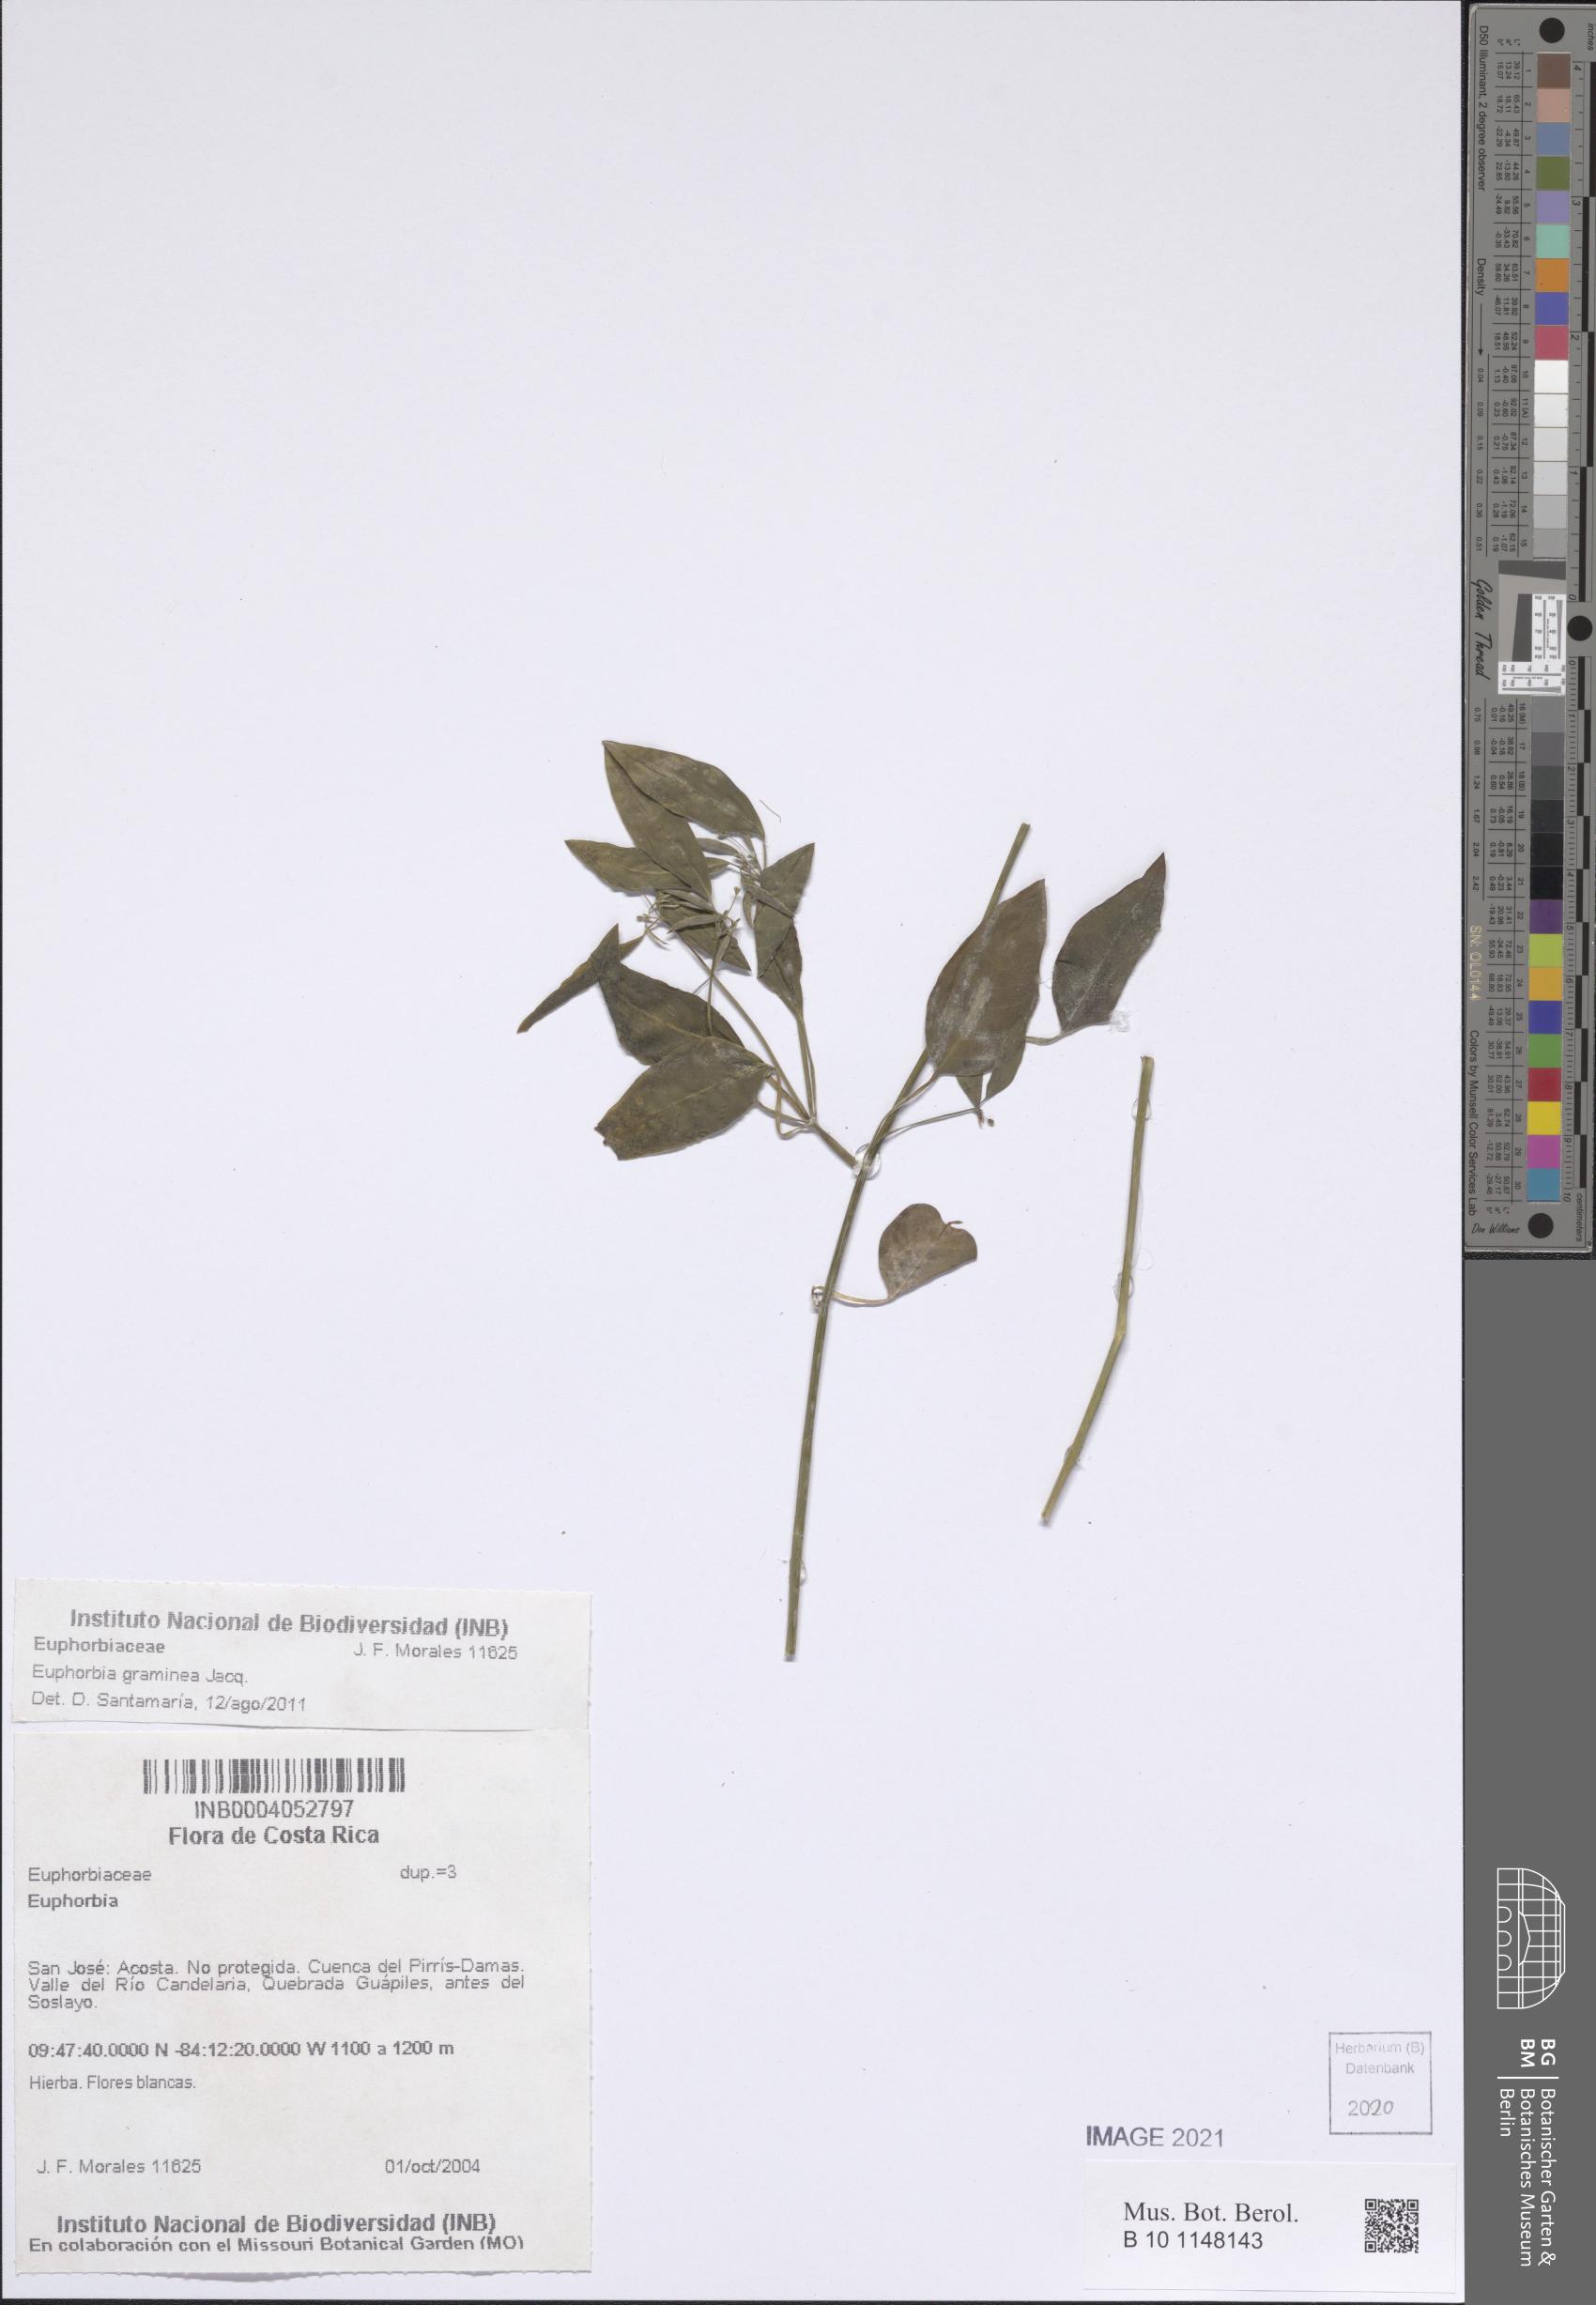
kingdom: Plantae
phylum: Tracheophyta
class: Magnoliopsida
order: Malpighiales
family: Euphorbiaceae
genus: Euphorbia
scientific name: Euphorbia
